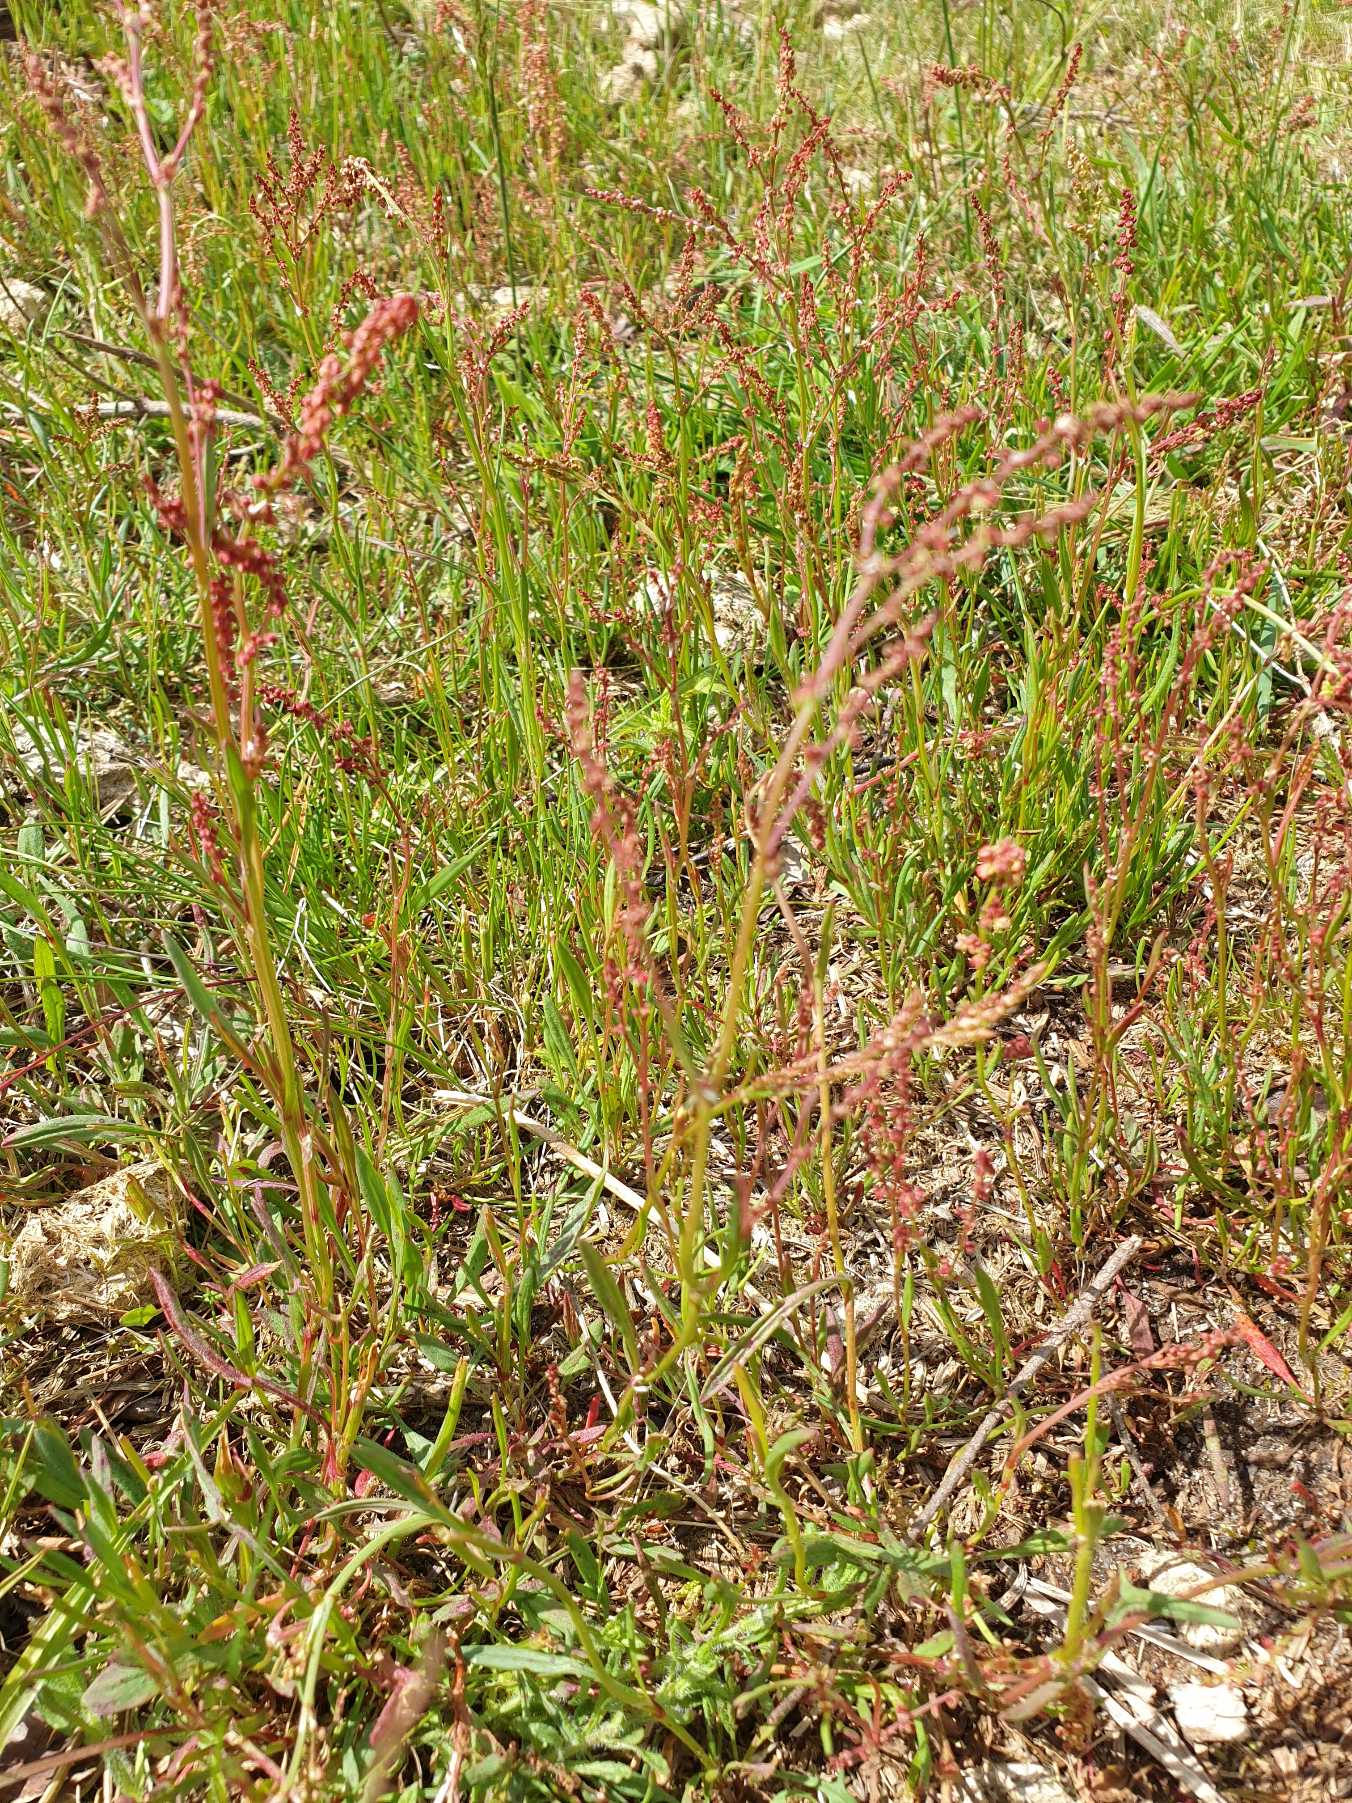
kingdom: Plantae
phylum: Tracheophyta
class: Magnoliopsida
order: Caryophyllales
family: Polygonaceae
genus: Rumex
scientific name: Rumex acetosella
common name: Rødknæ
